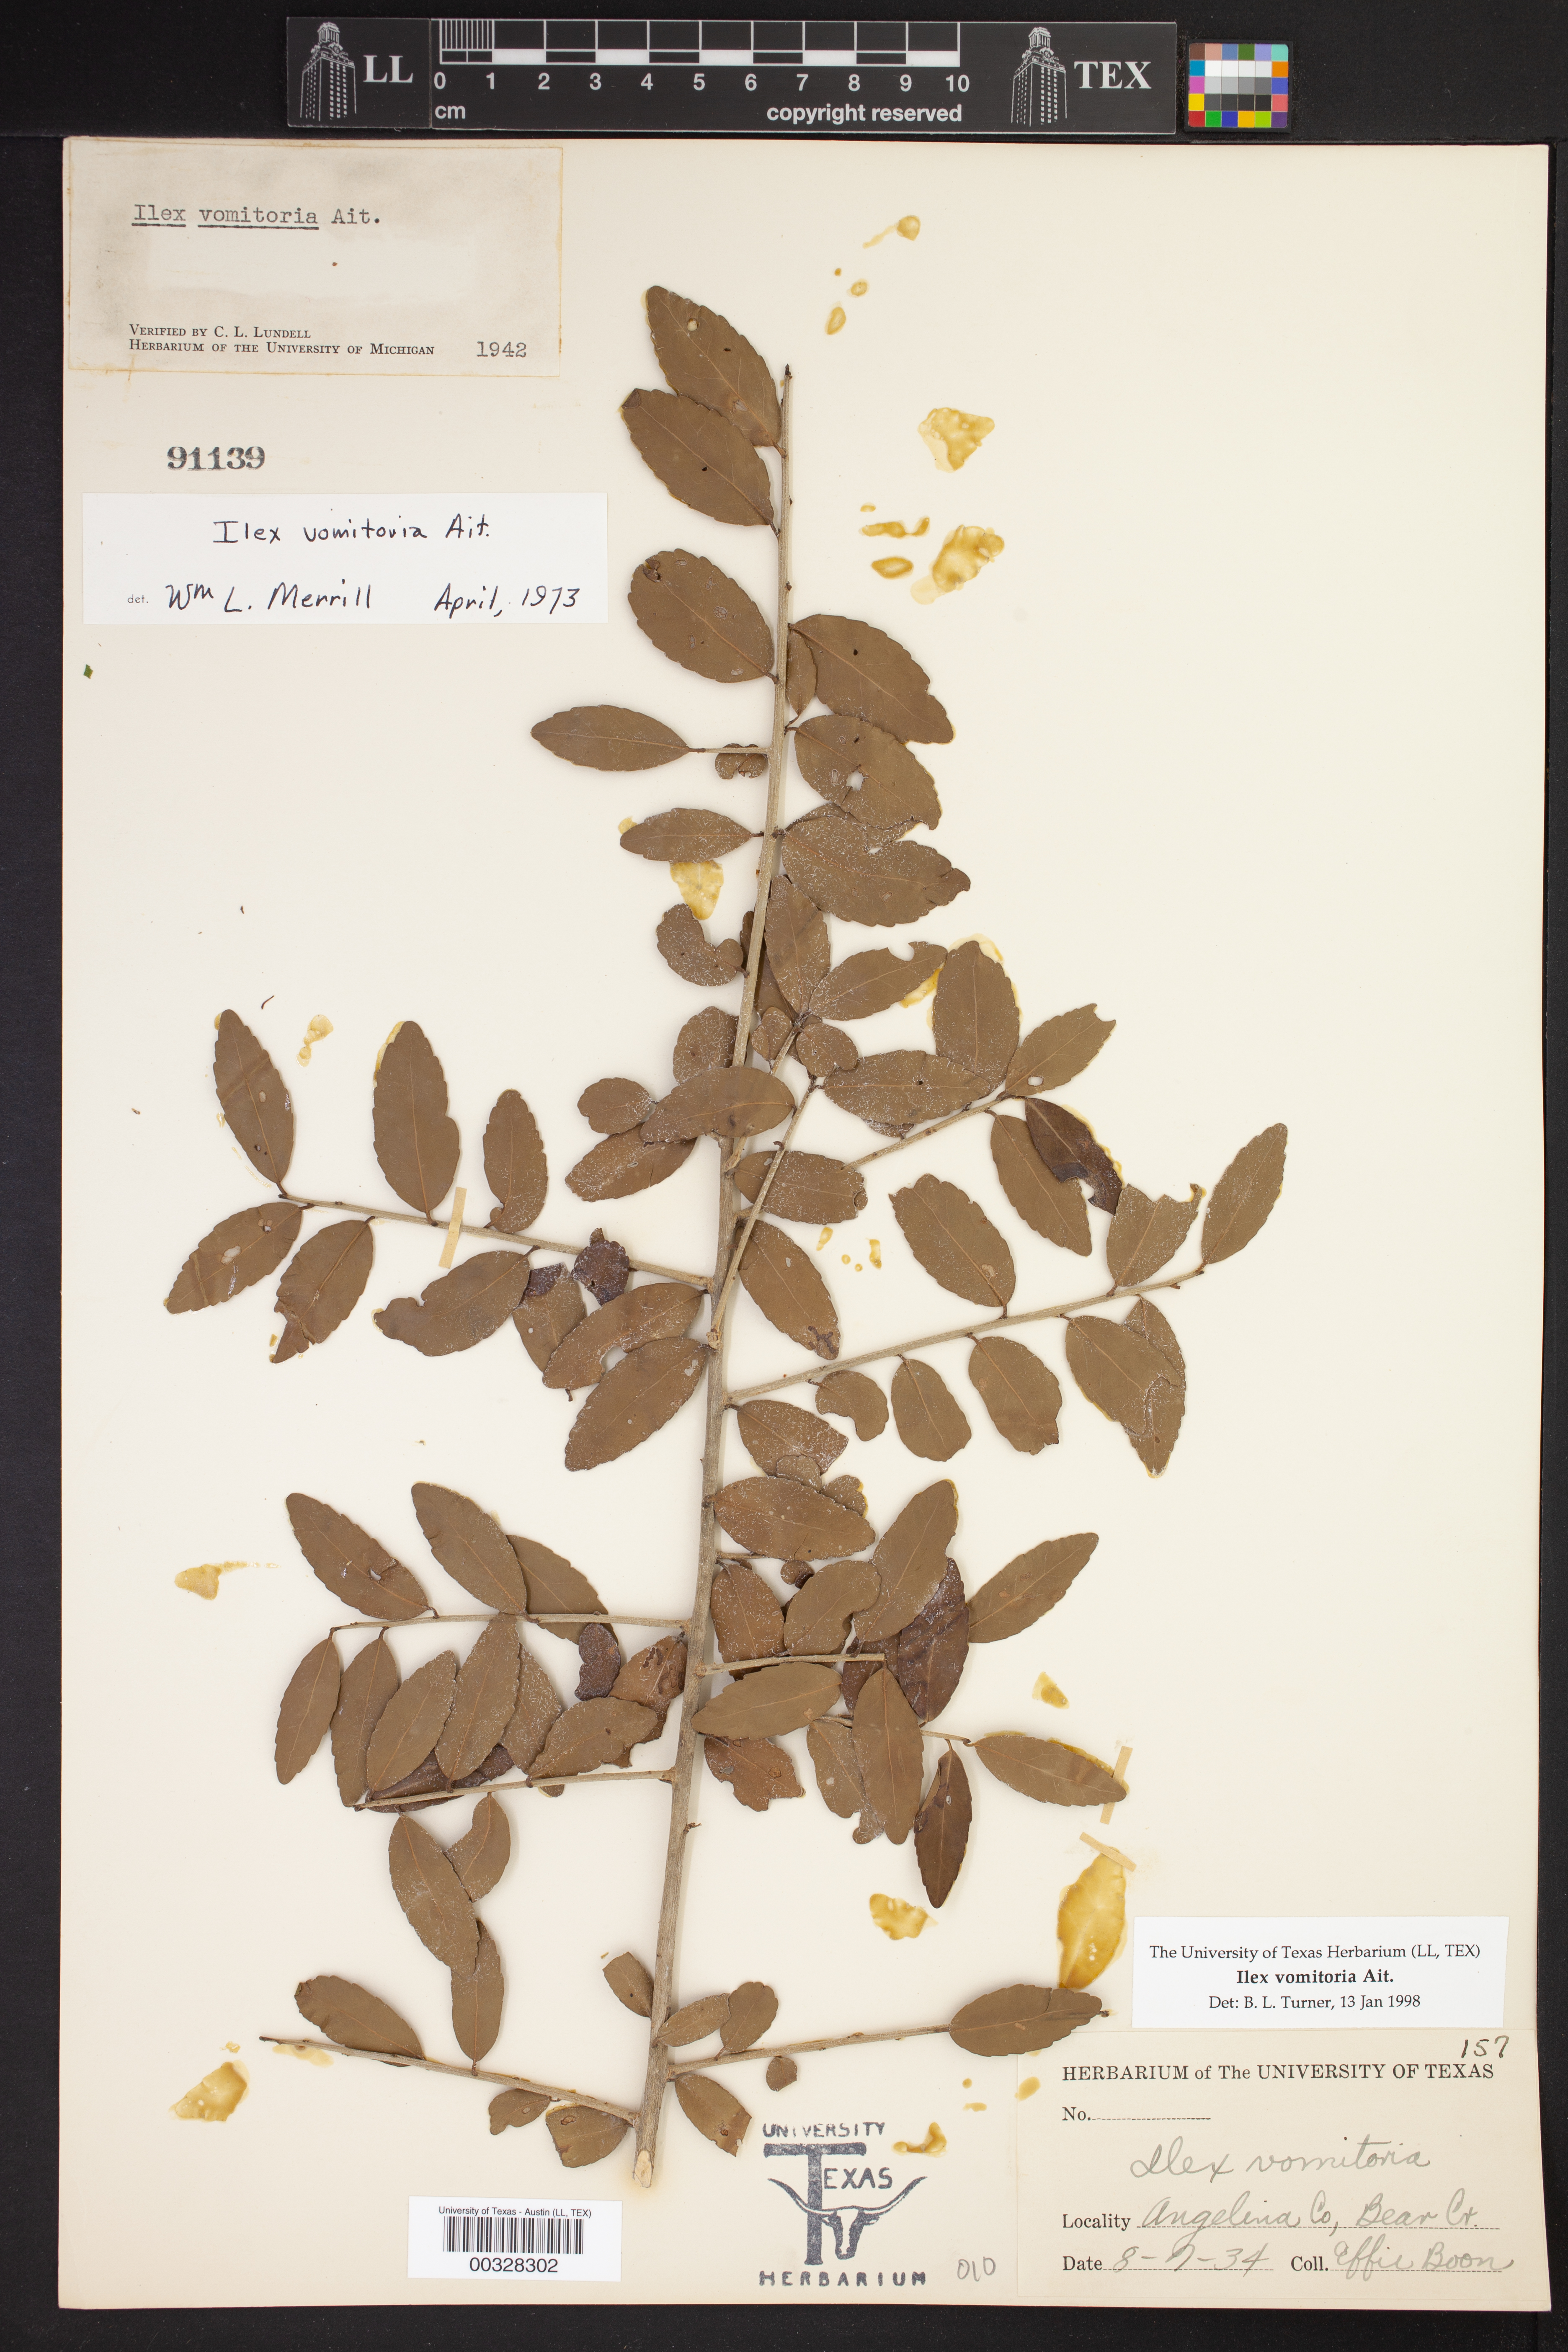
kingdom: Plantae
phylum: Tracheophyta
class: Magnoliopsida
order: Aquifoliales
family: Aquifoliaceae
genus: Ilex
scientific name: Ilex vomitoria
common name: Yaupon holly
